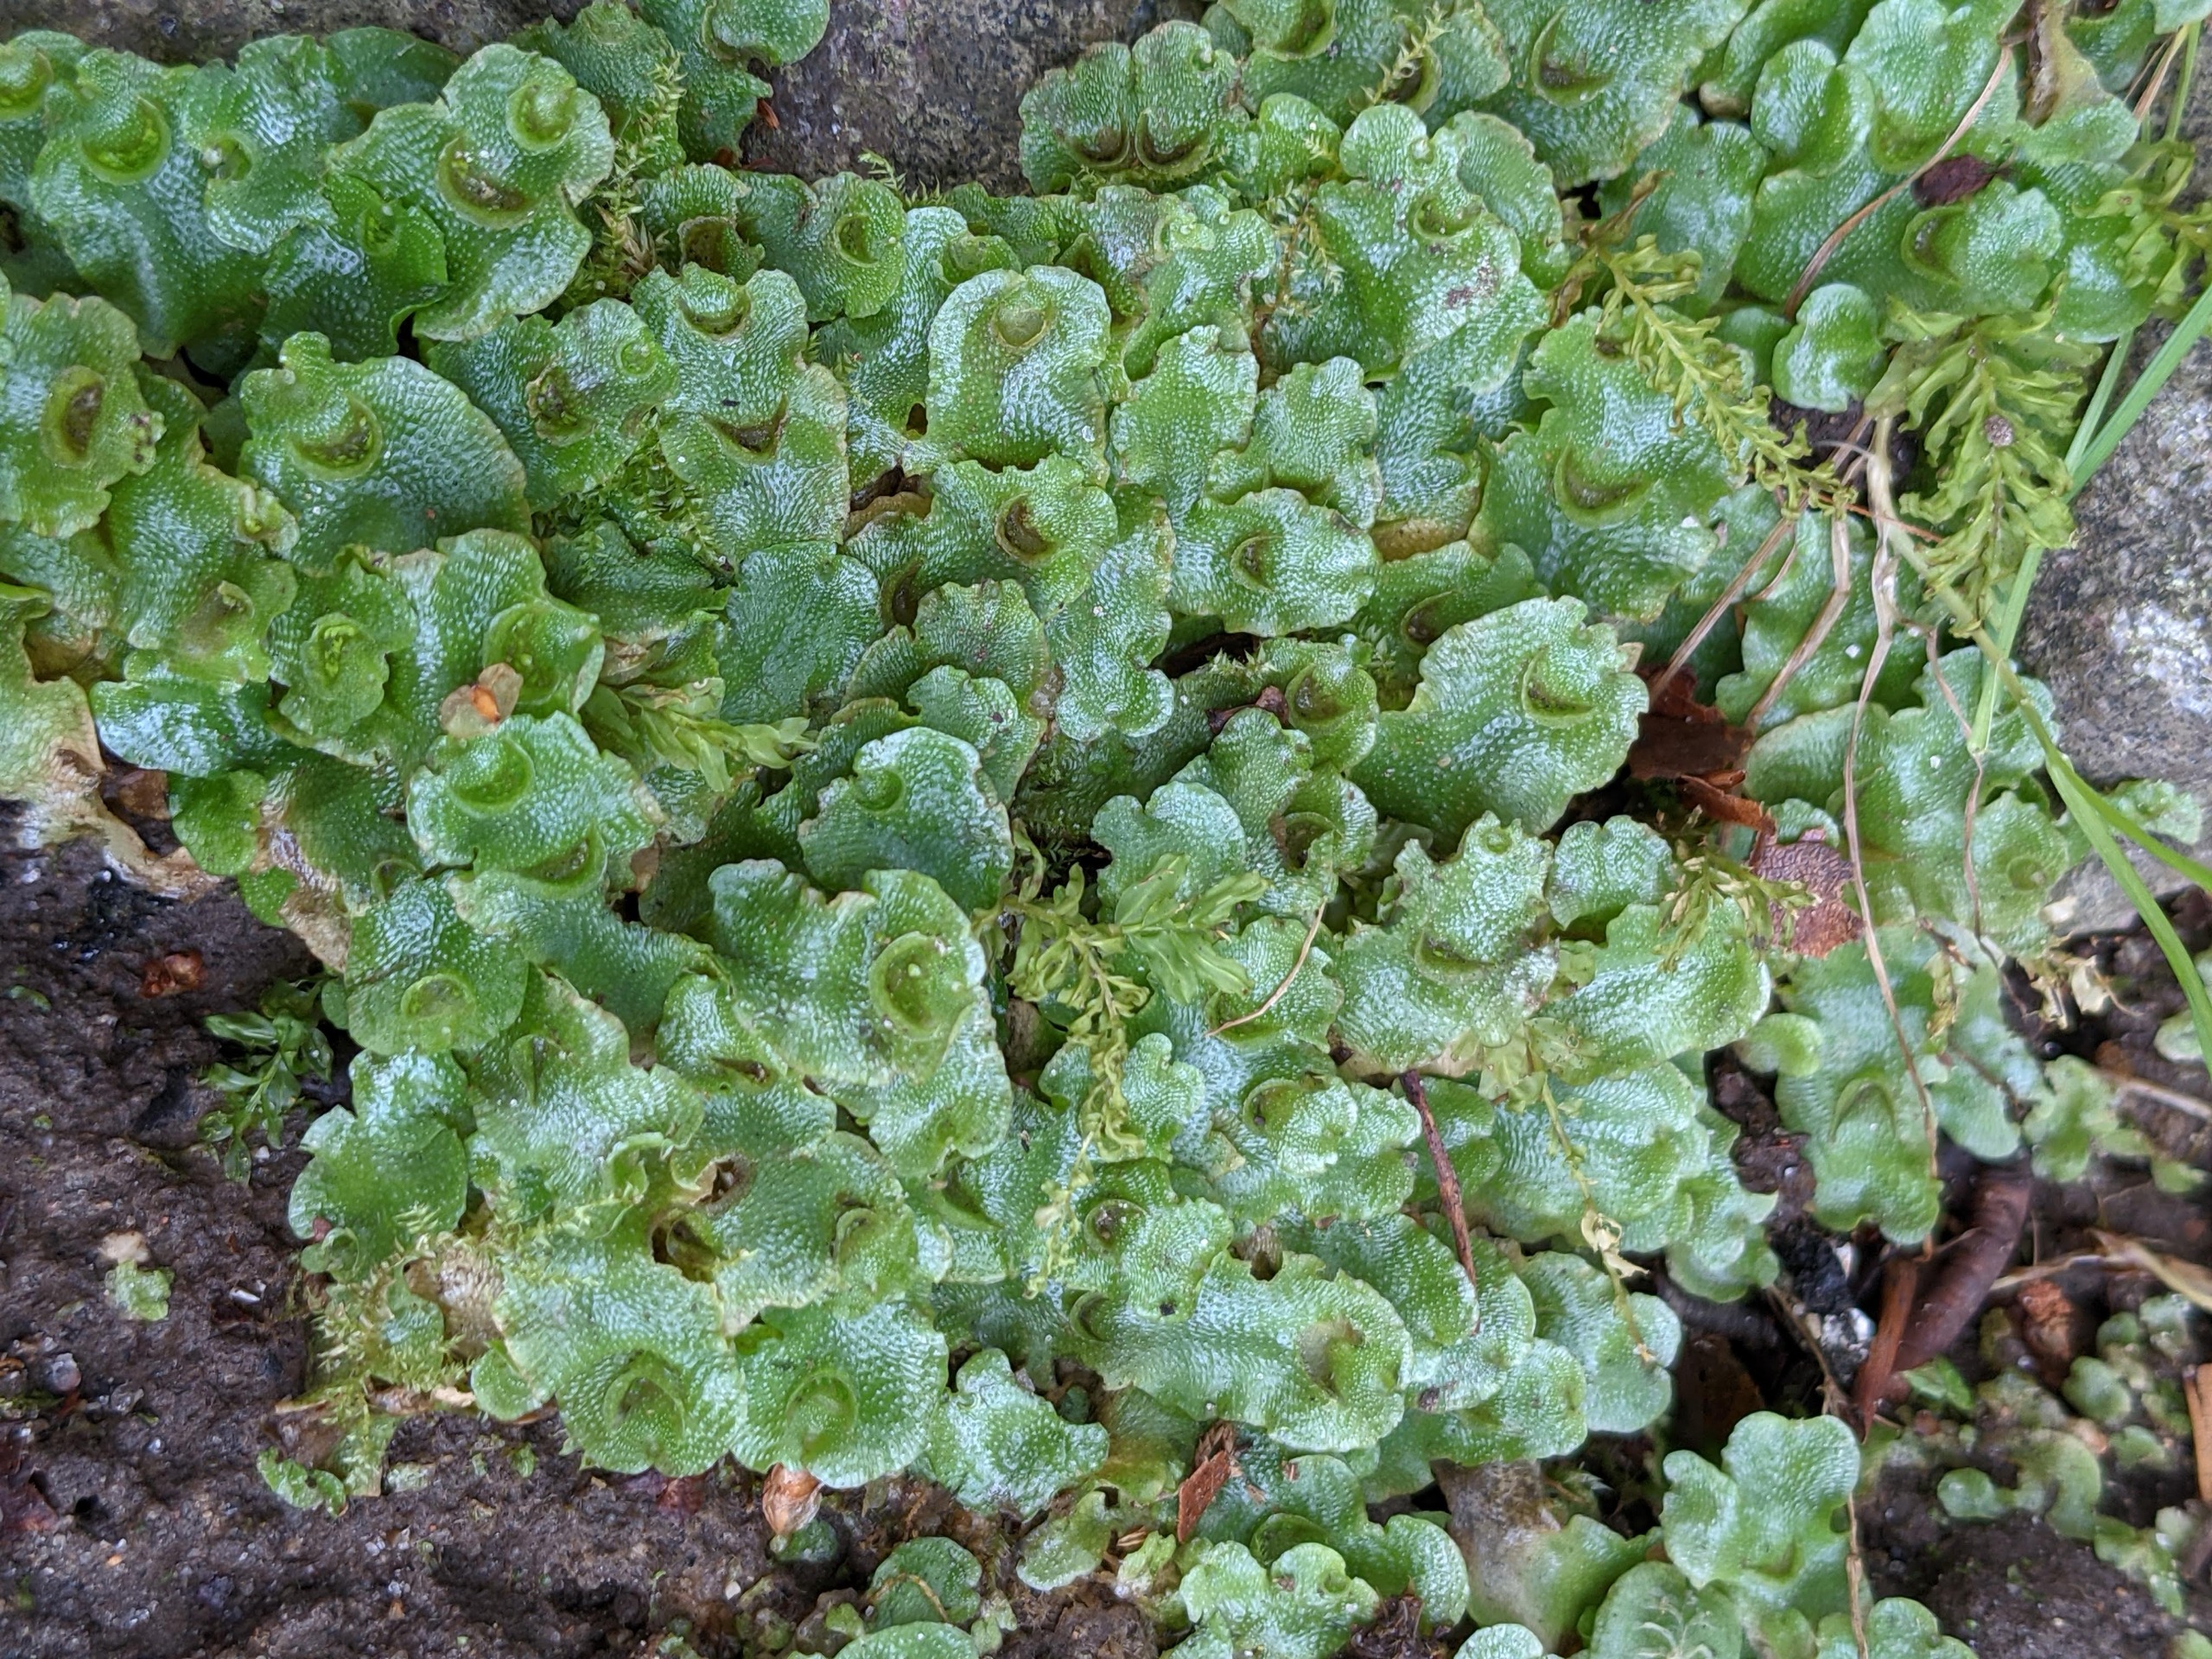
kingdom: Plantae
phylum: Marchantiophyta
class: Marchantiopsida
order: Lunulariales
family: Lunulariaceae
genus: Lunularia
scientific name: Lunularia cruciata
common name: Almindelig månemos
